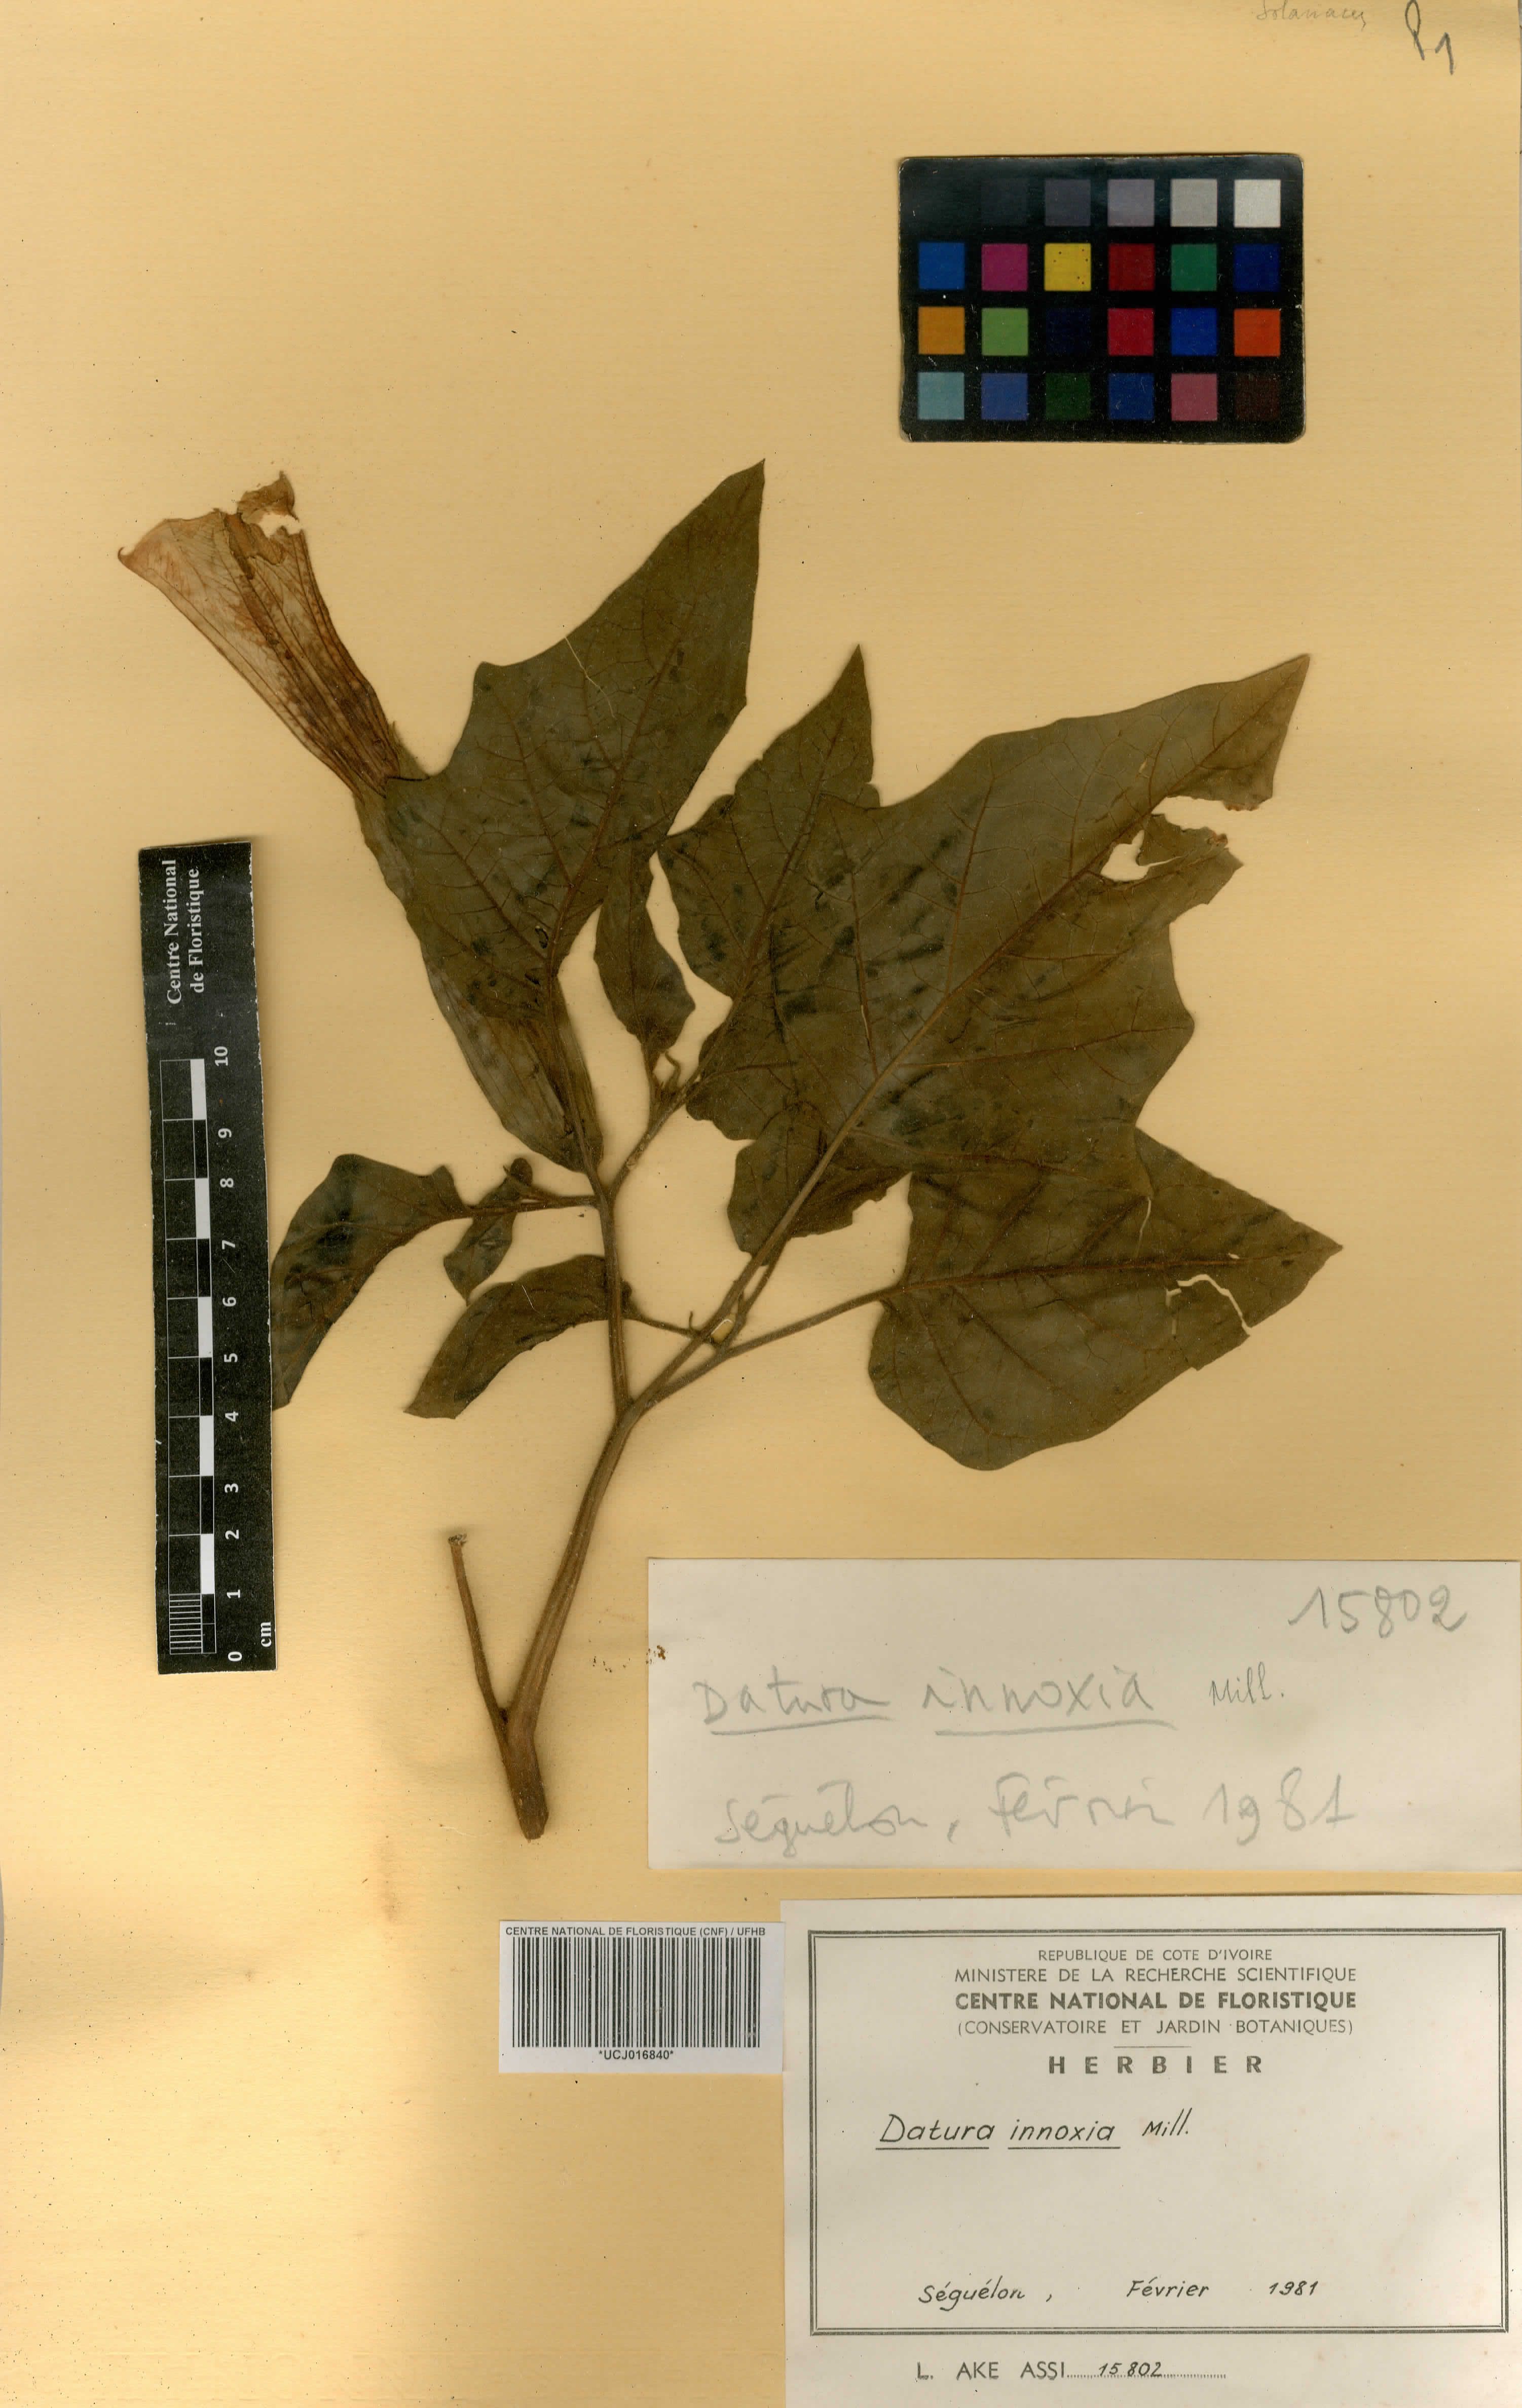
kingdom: Plantae
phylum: Tracheophyta
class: Magnoliopsida
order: Solanales
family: Solanaceae
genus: Datura
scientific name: Datura innoxia
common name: Downy thorn-apple
